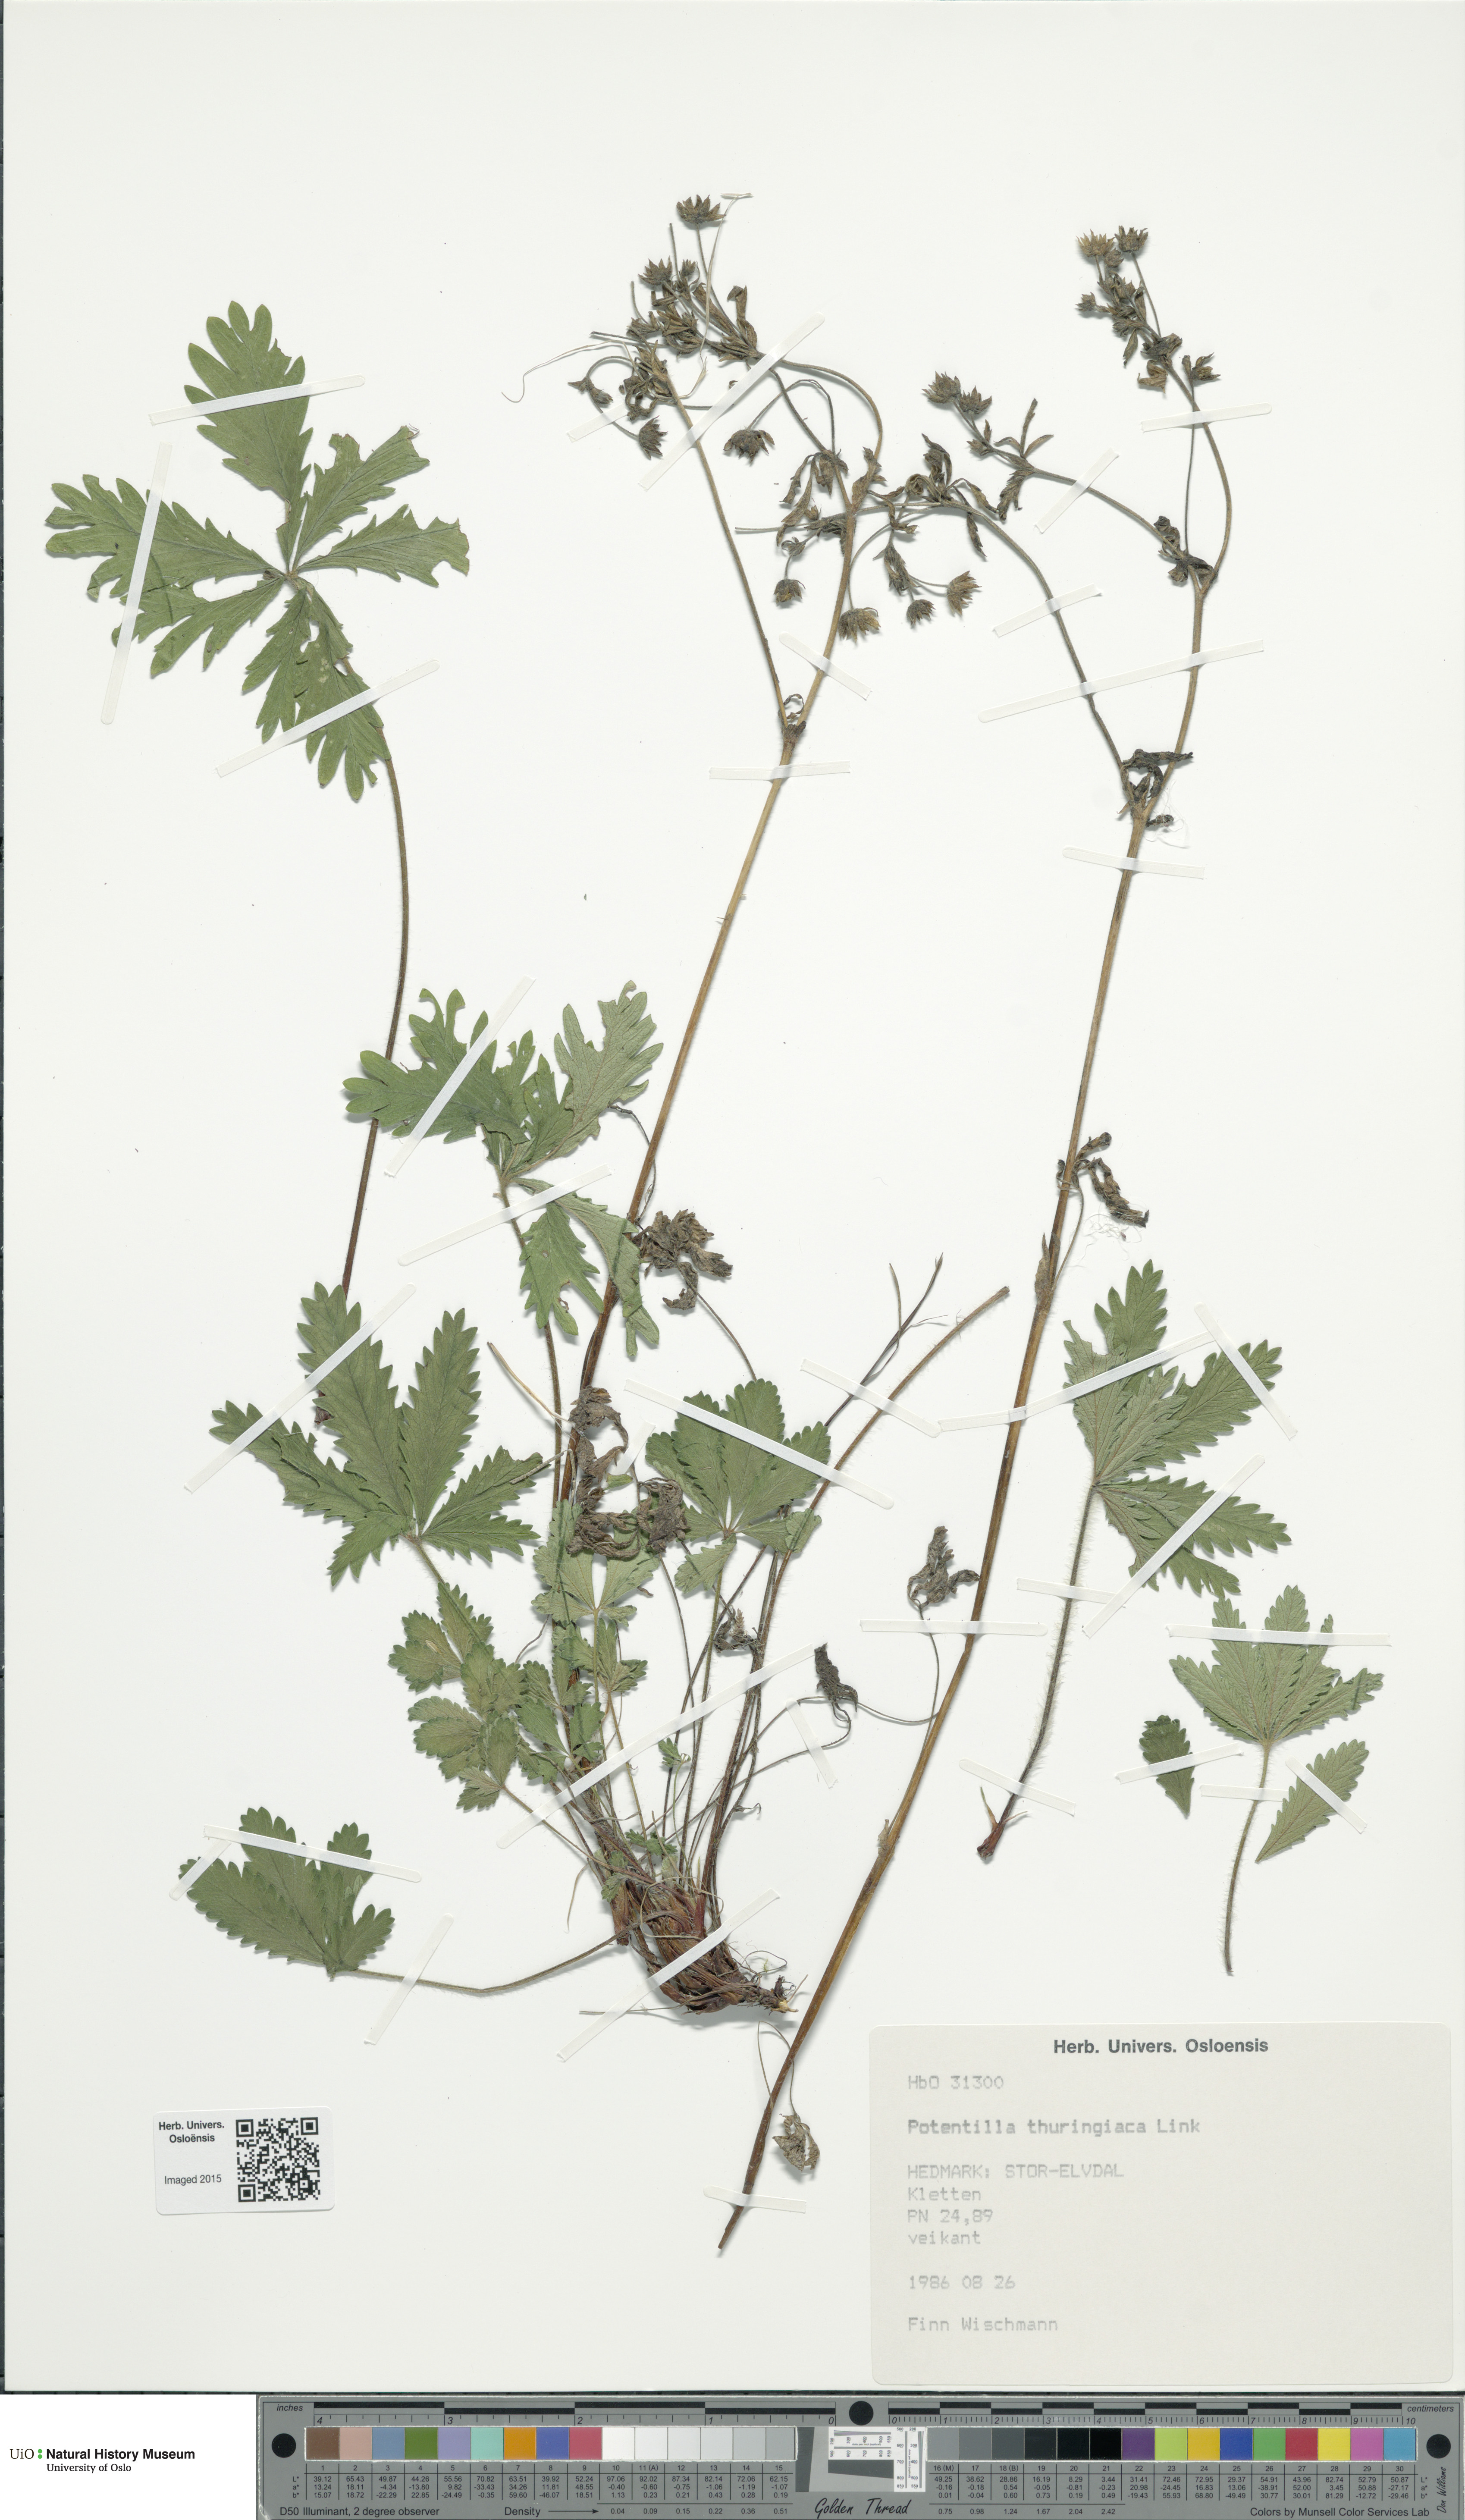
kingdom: Plantae
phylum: Tracheophyta
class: Magnoliopsida
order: Rosales
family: Rosaceae
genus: Potentilla
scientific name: Potentilla thuringiaca
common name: European cinquefoil
